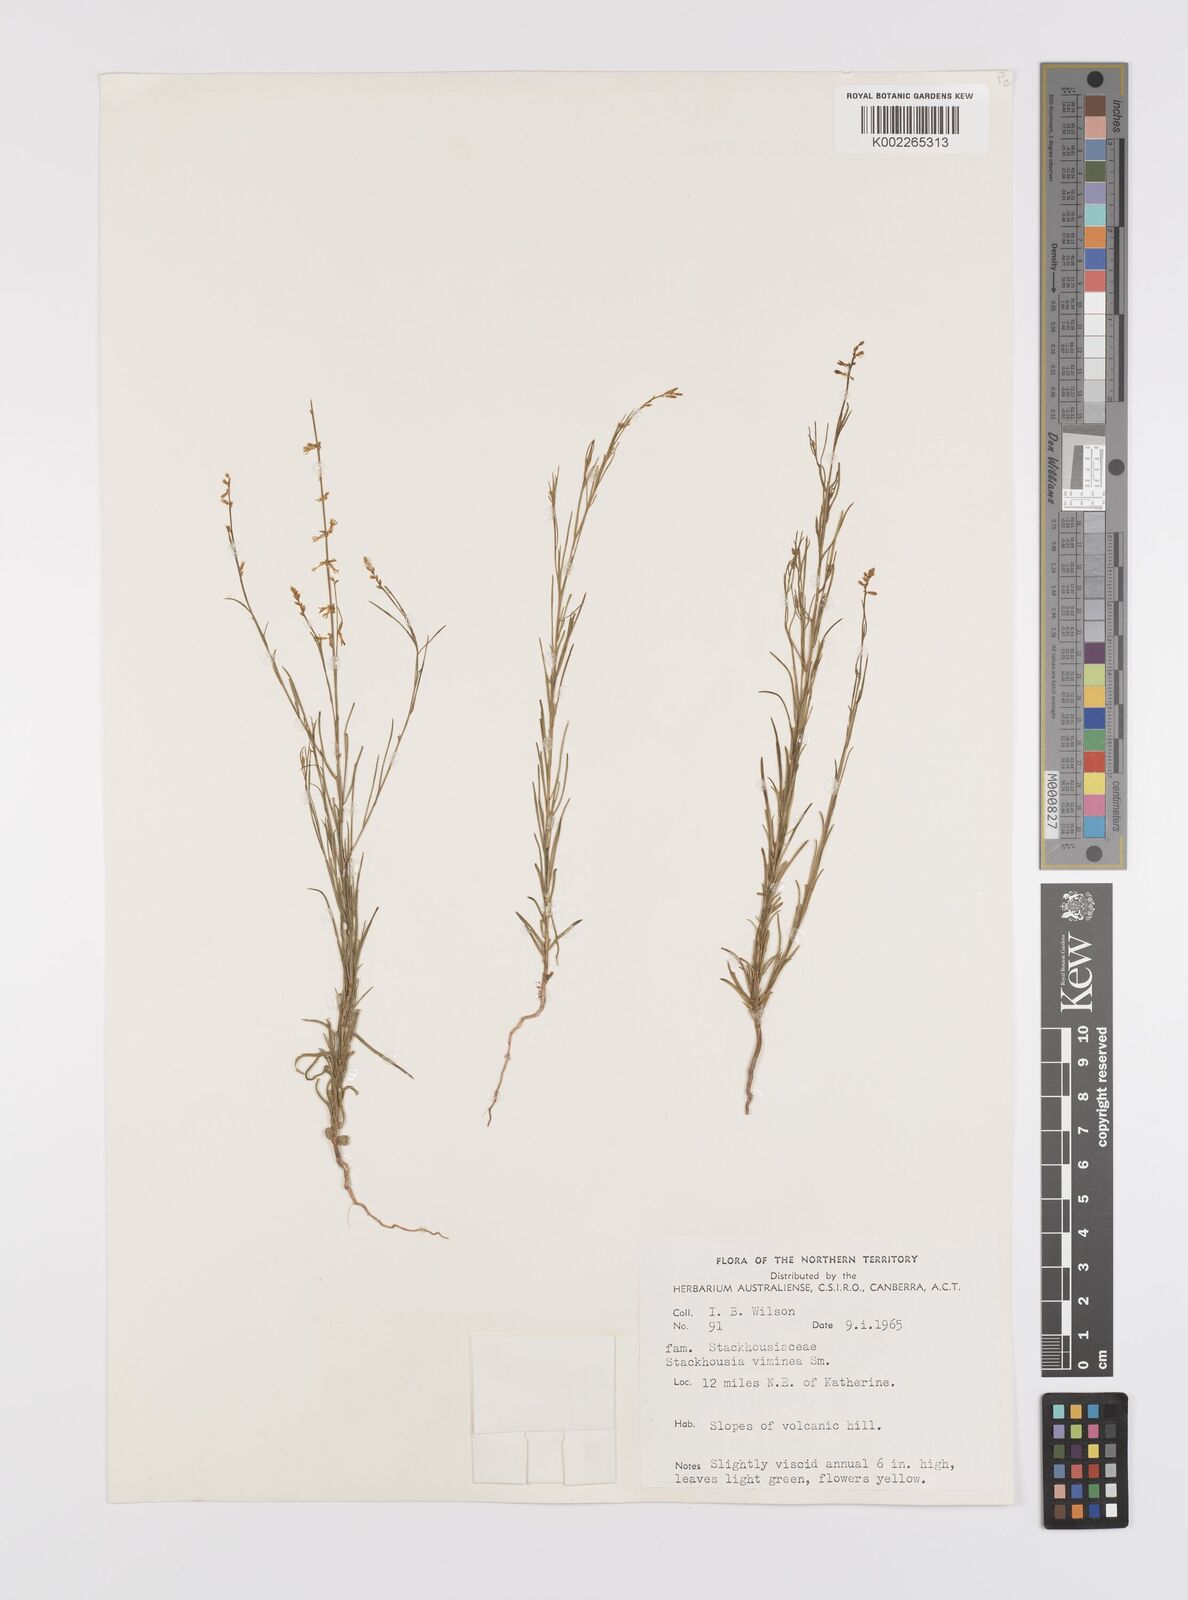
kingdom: Plantae
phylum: Tracheophyta
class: Magnoliopsida
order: Celastrales
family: Celastraceae
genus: Stackhousia
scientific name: Stackhousia viminea
